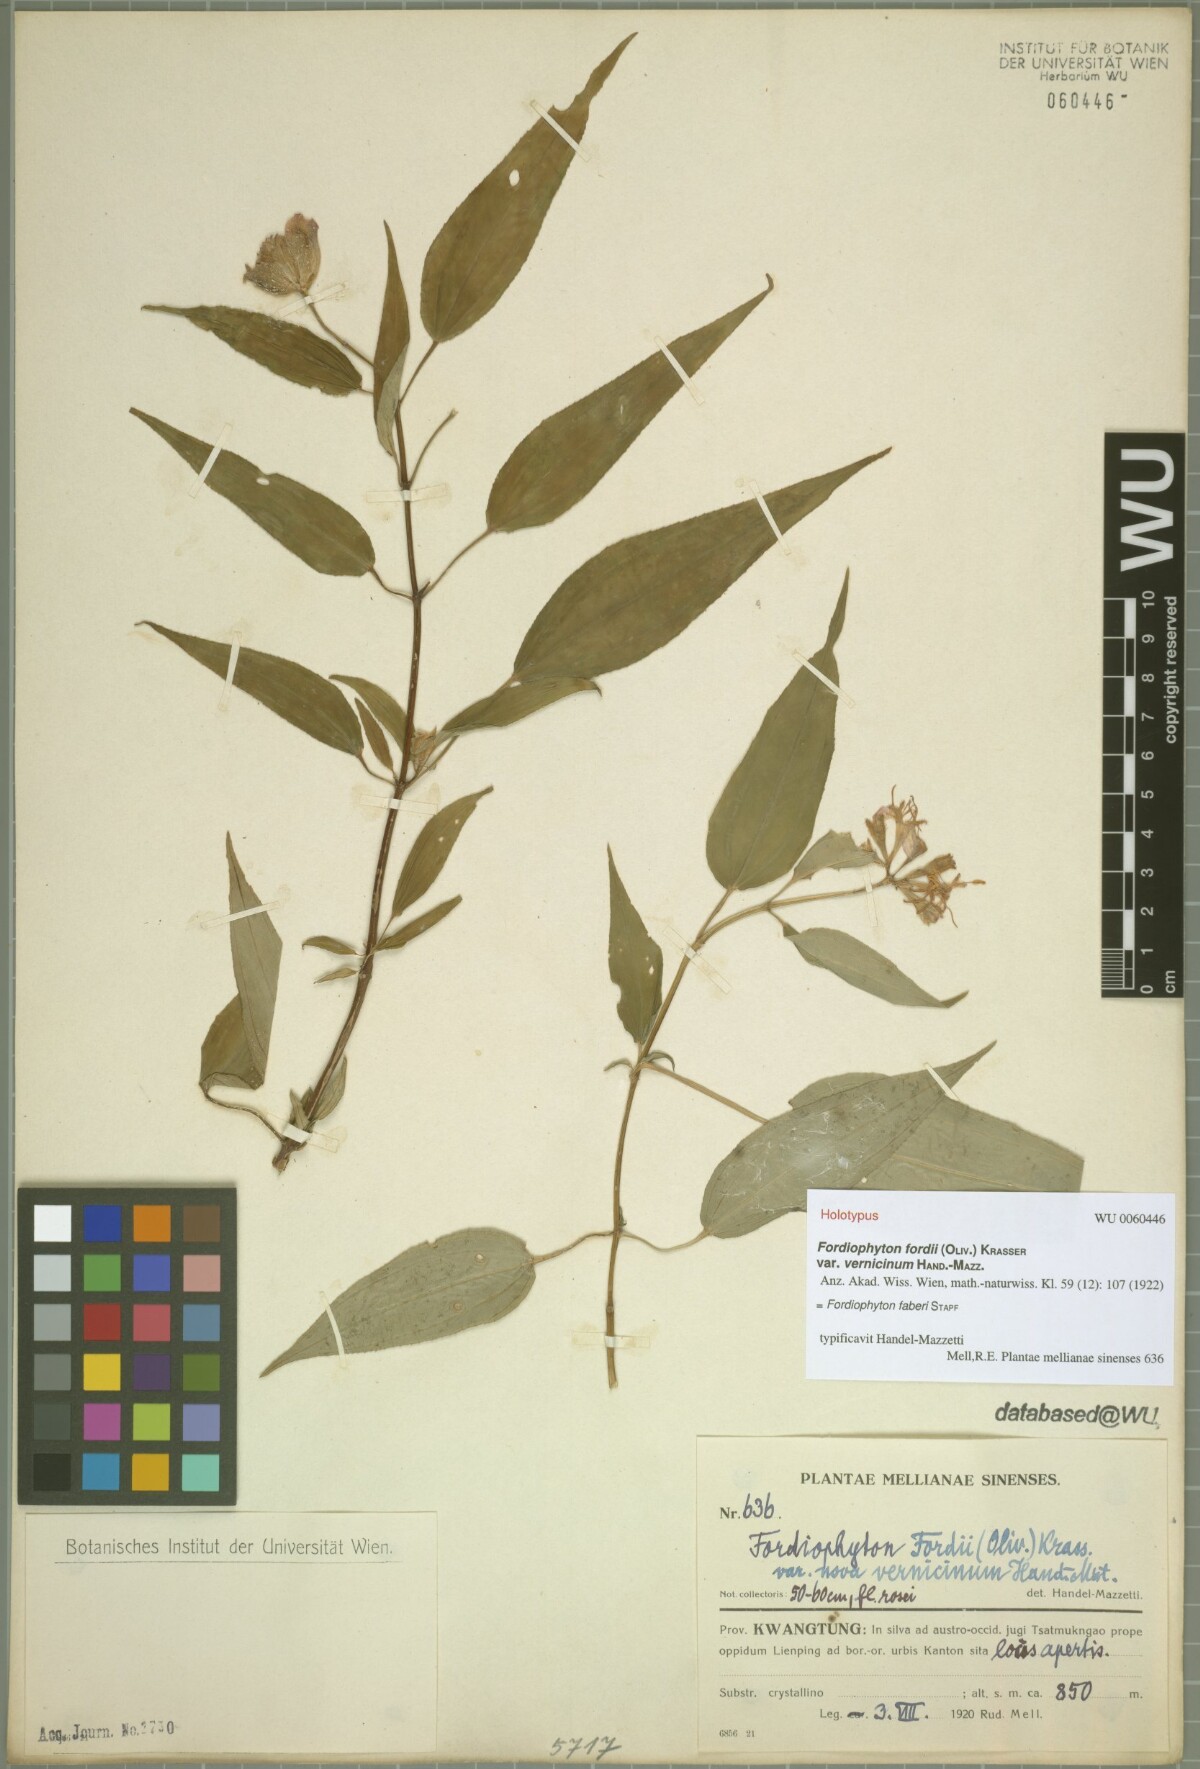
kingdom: Plantae
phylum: Tracheophyta
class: Magnoliopsida
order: Myrtales
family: Melastomataceae
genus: Fordiophyton
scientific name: Fordiophyton faberi
